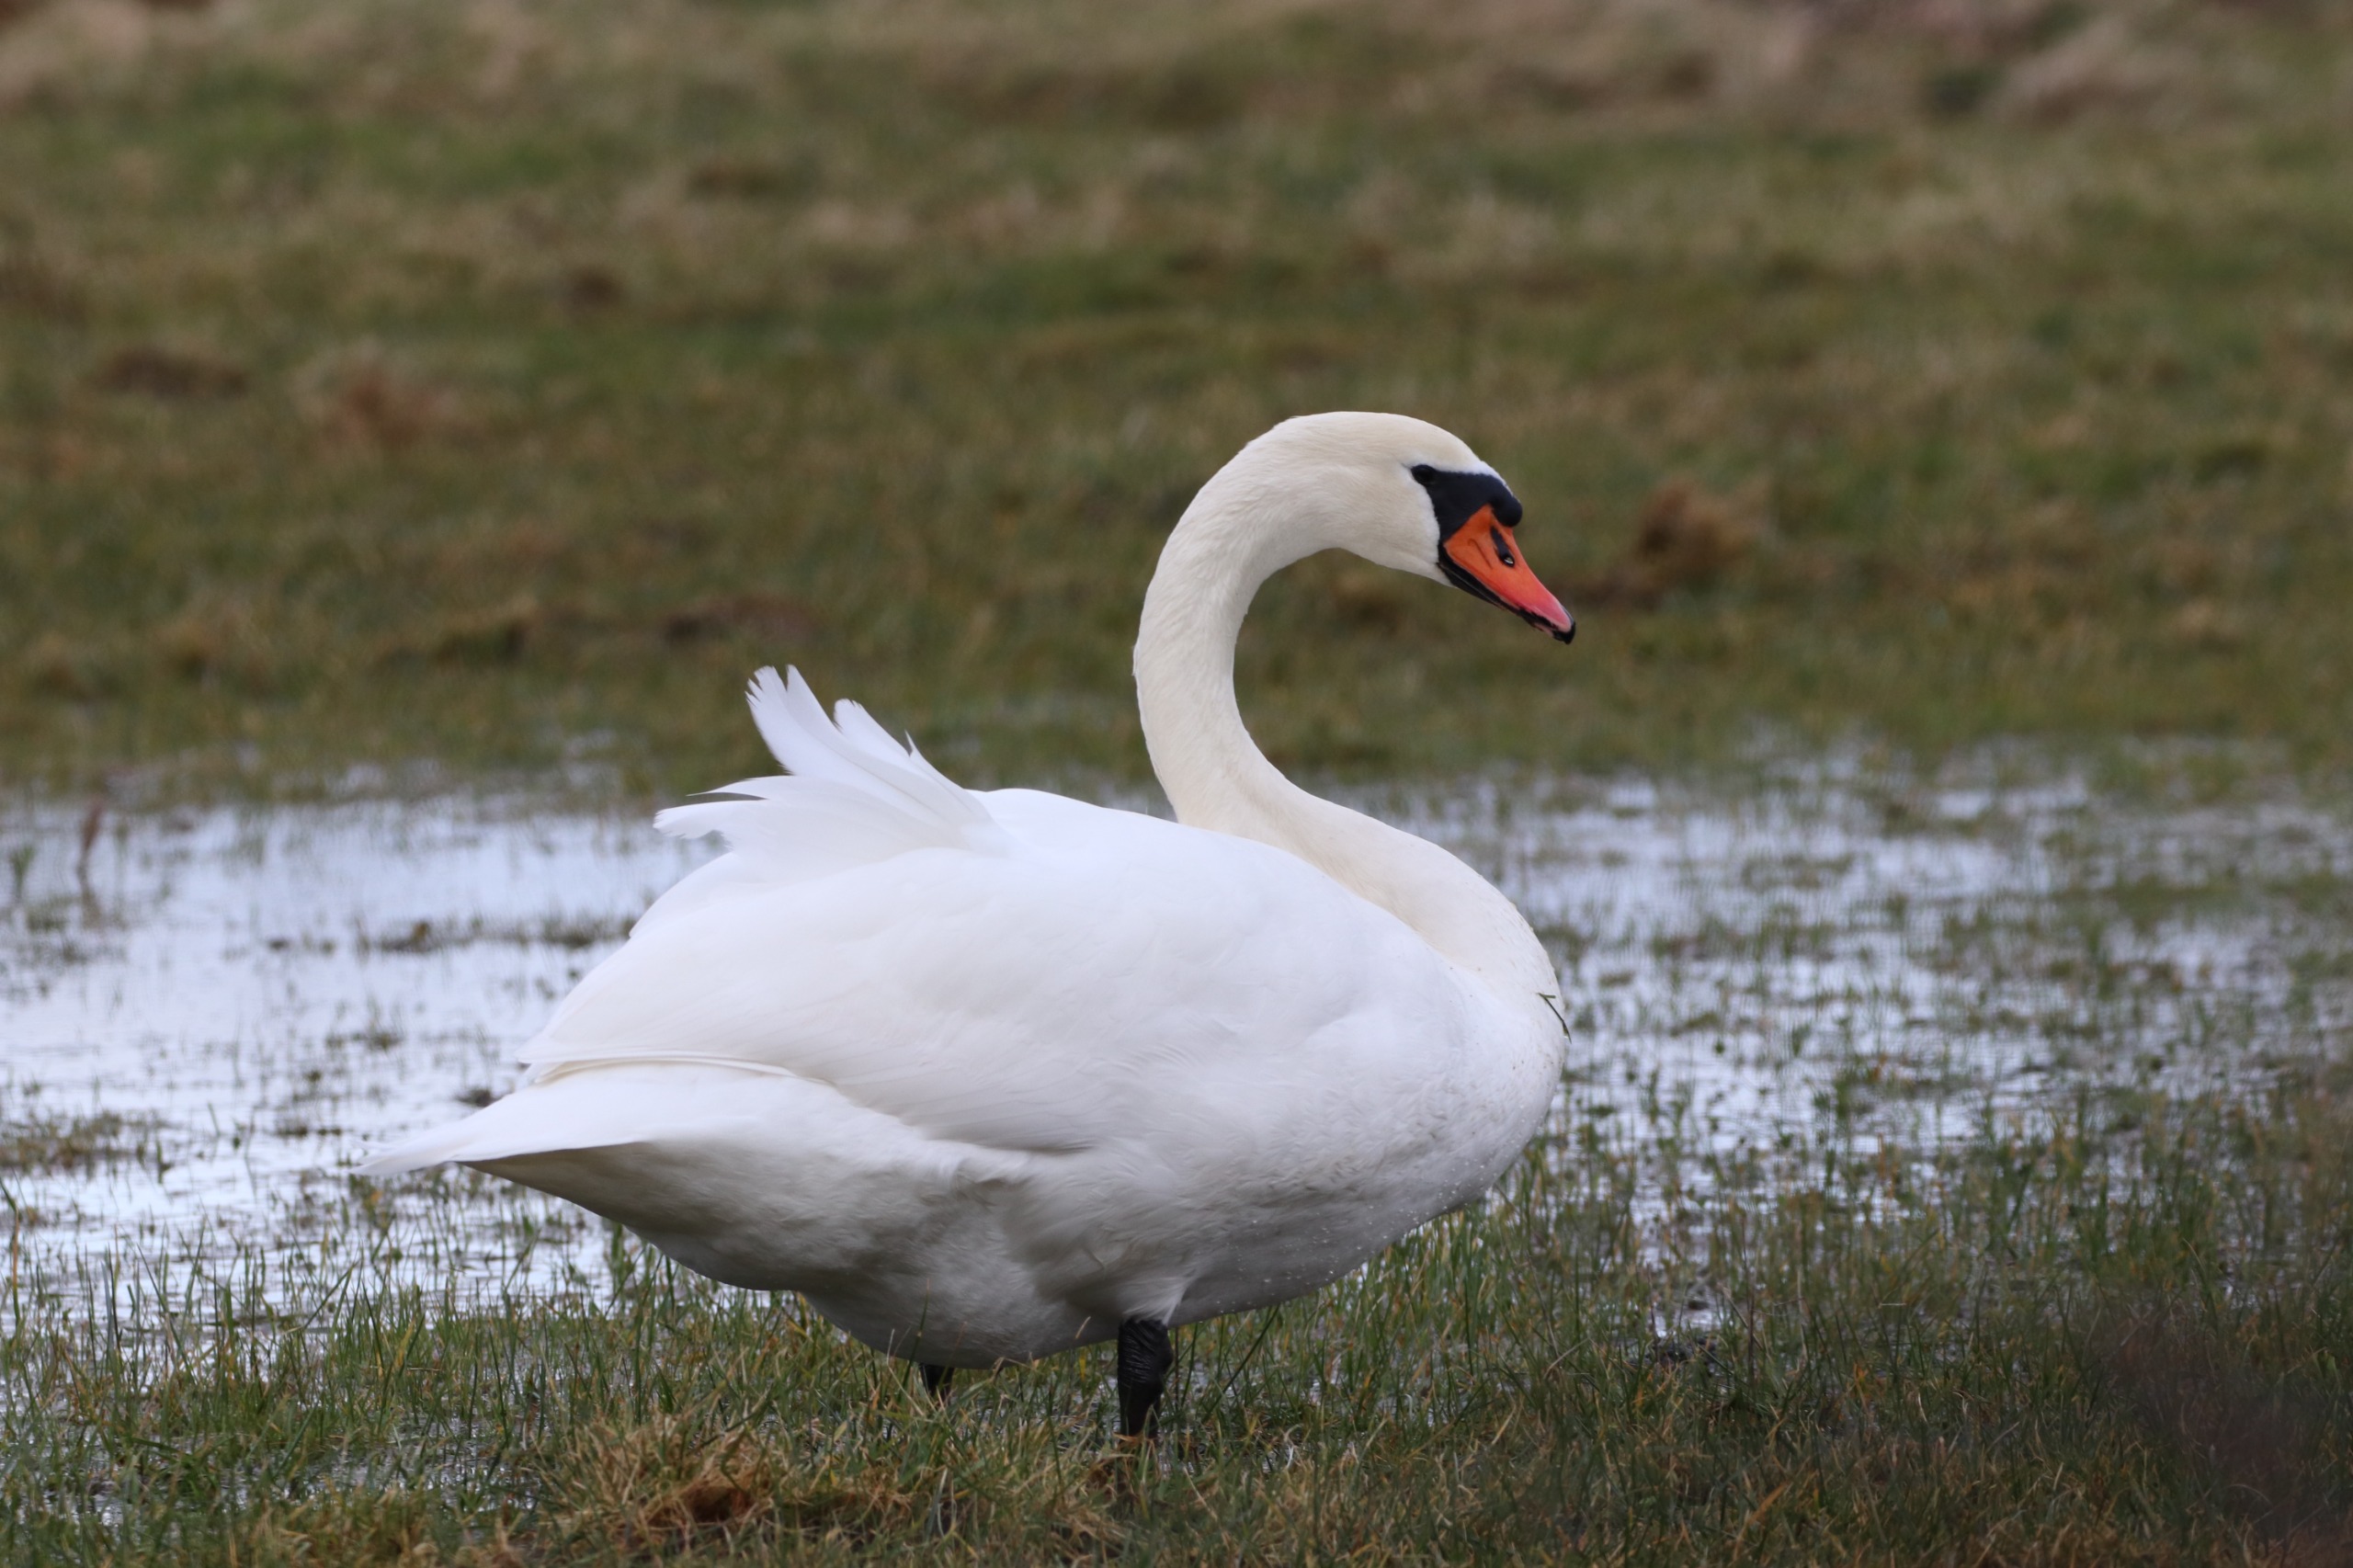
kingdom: Animalia
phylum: Chordata
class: Aves
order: Anseriformes
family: Anatidae
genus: Cygnus
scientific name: Cygnus olor
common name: Knopsvane
